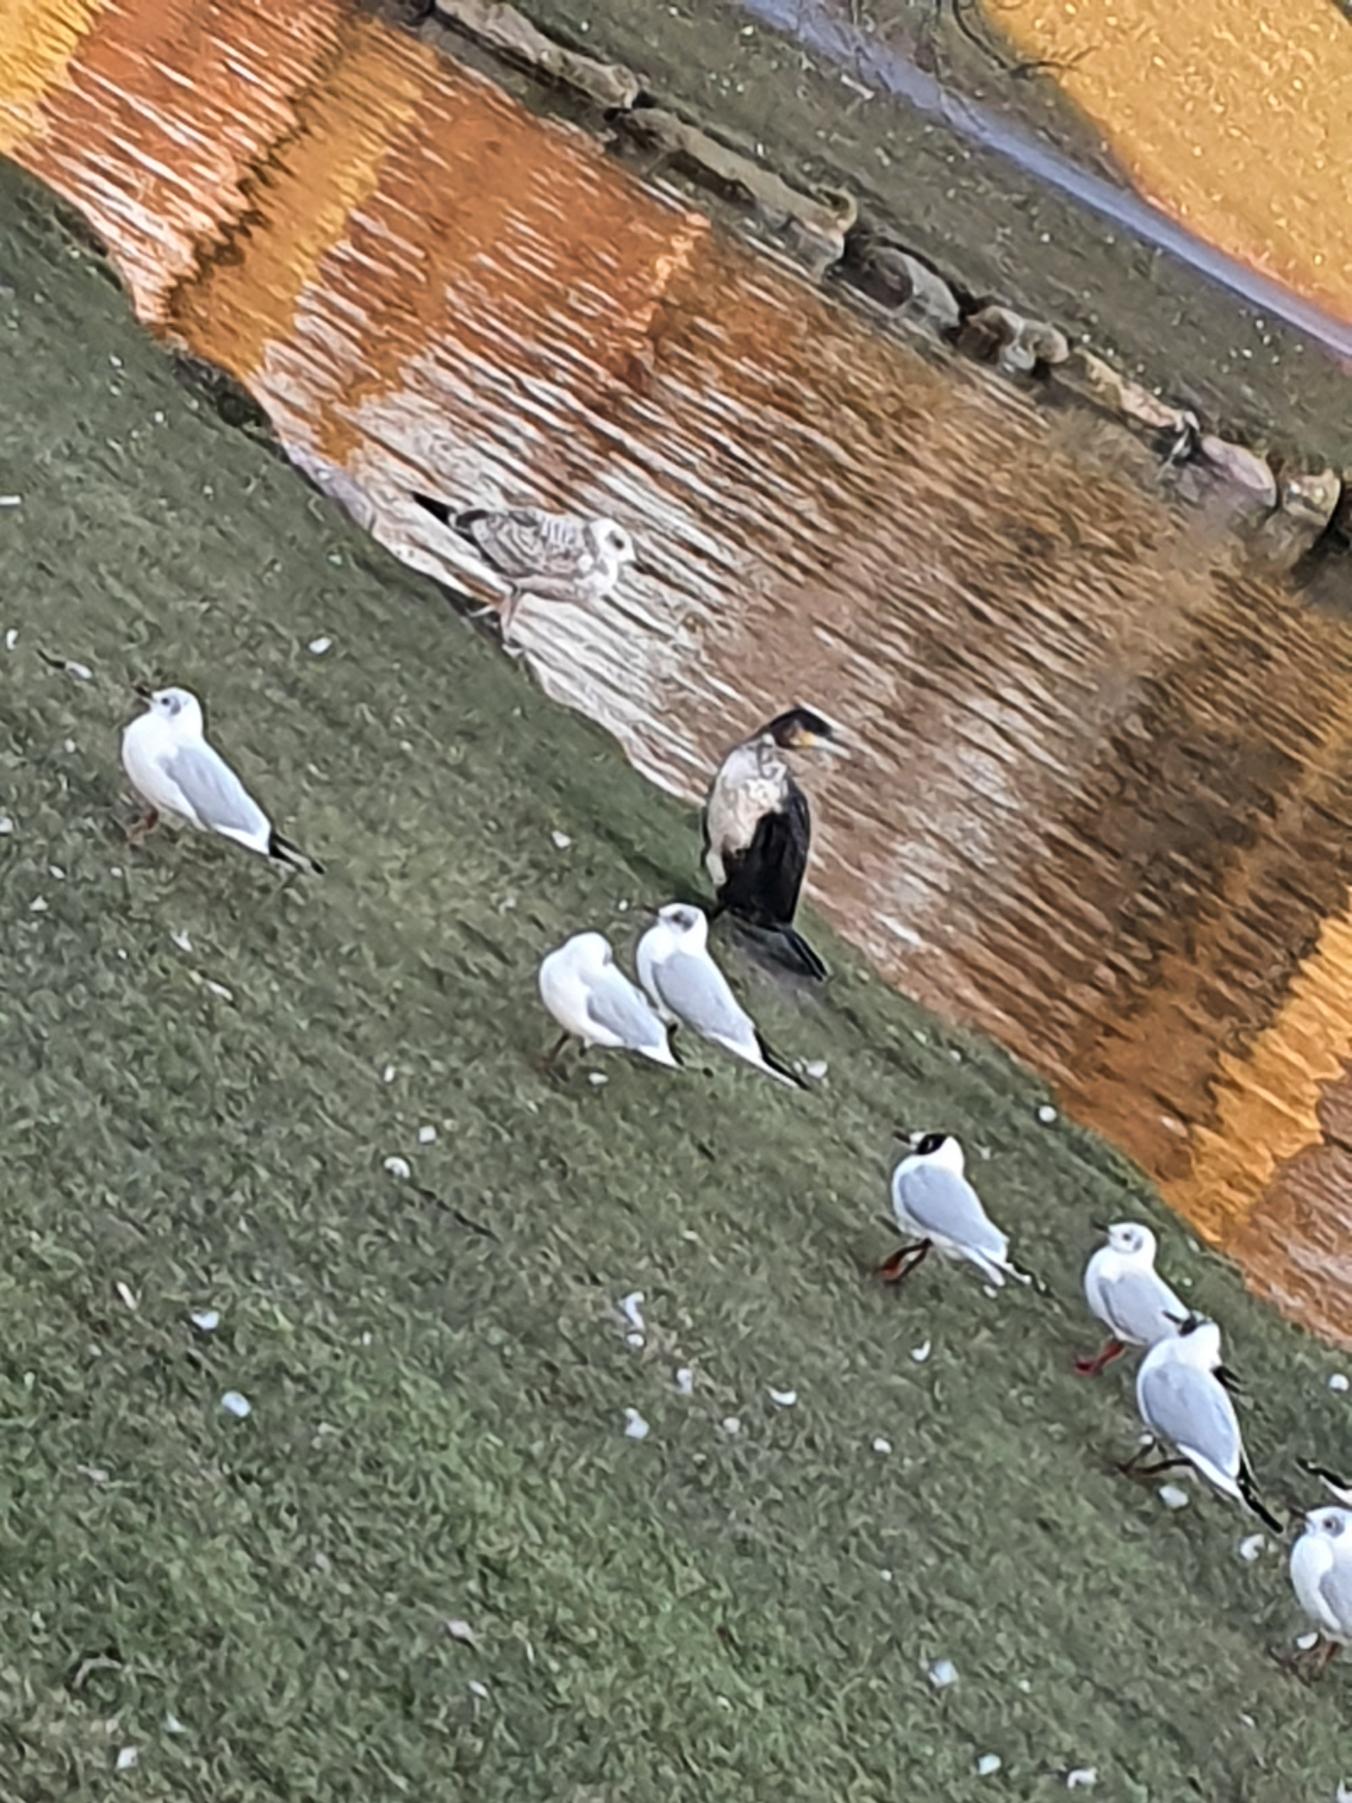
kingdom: Animalia
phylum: Chordata
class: Aves
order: Suliformes
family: Phalacrocoracidae
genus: Phalacrocorax
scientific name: Phalacrocorax carbo
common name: Skarv
